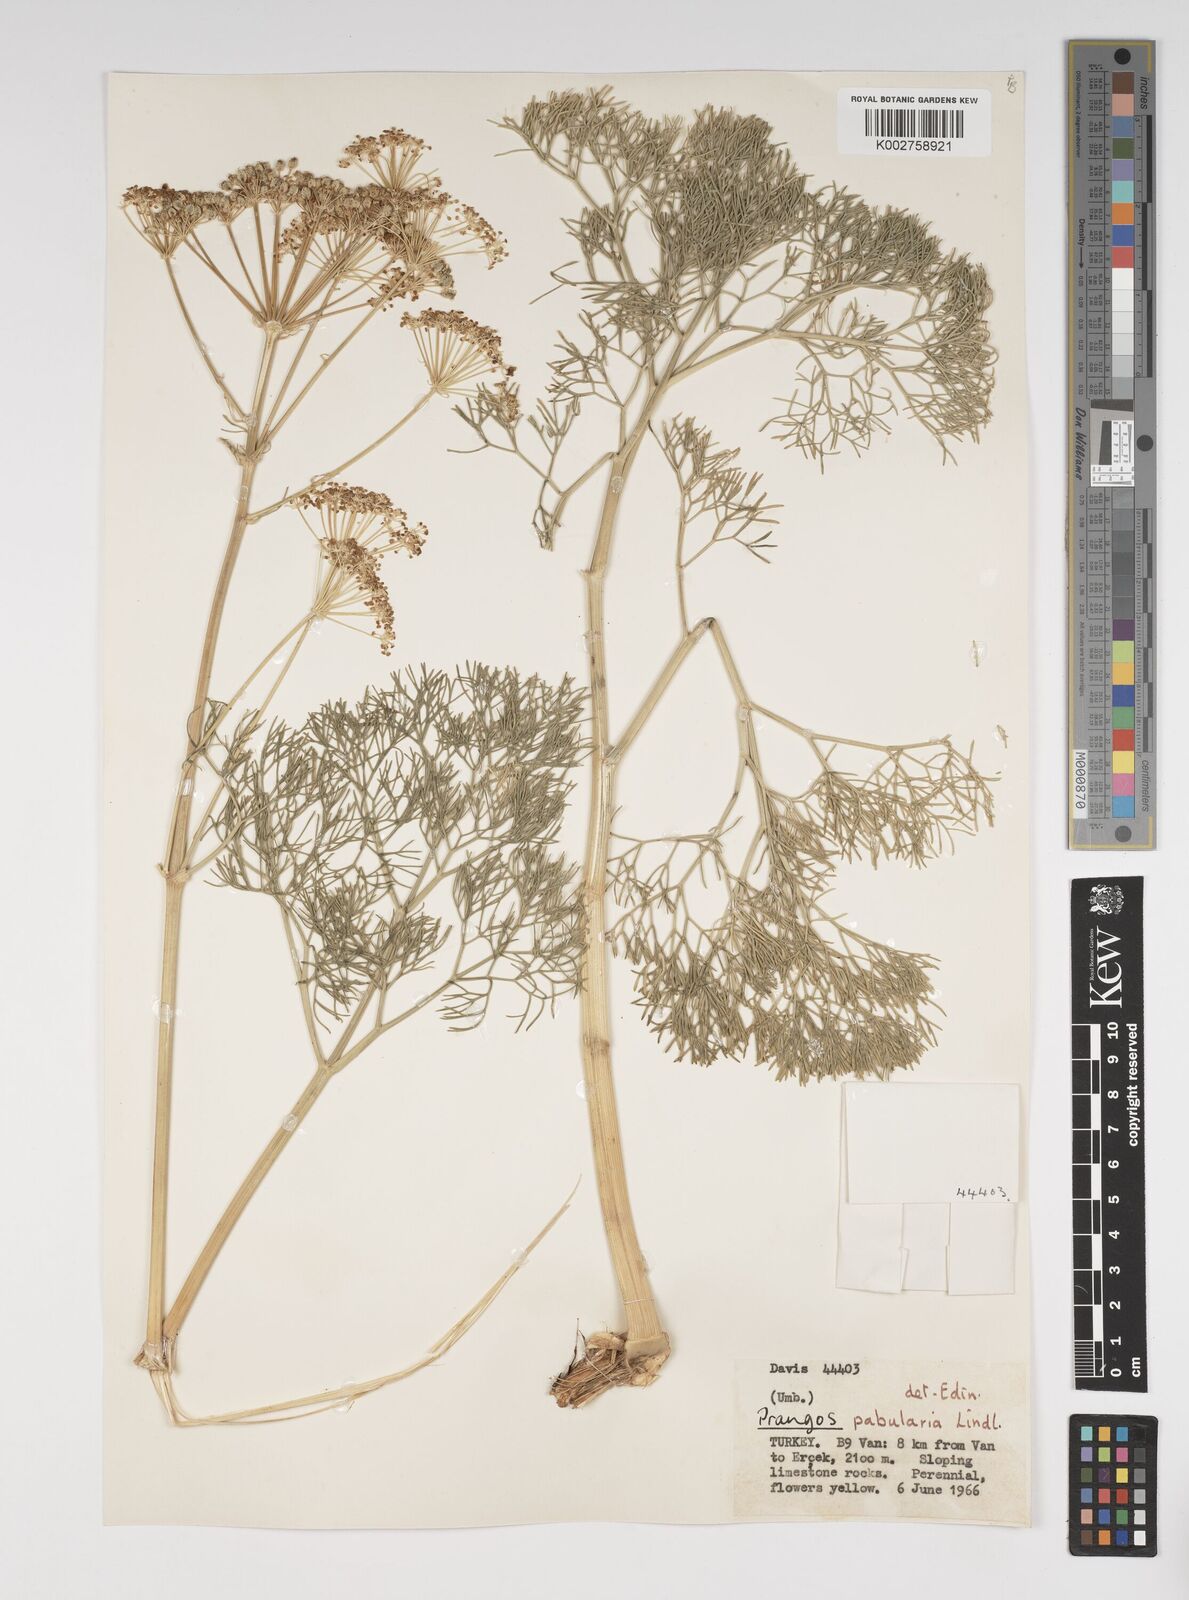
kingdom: Plantae
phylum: Tracheophyta
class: Magnoliopsida
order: Apiales
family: Apiaceae
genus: Prangos
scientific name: Prangos pabularia
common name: Yugan
